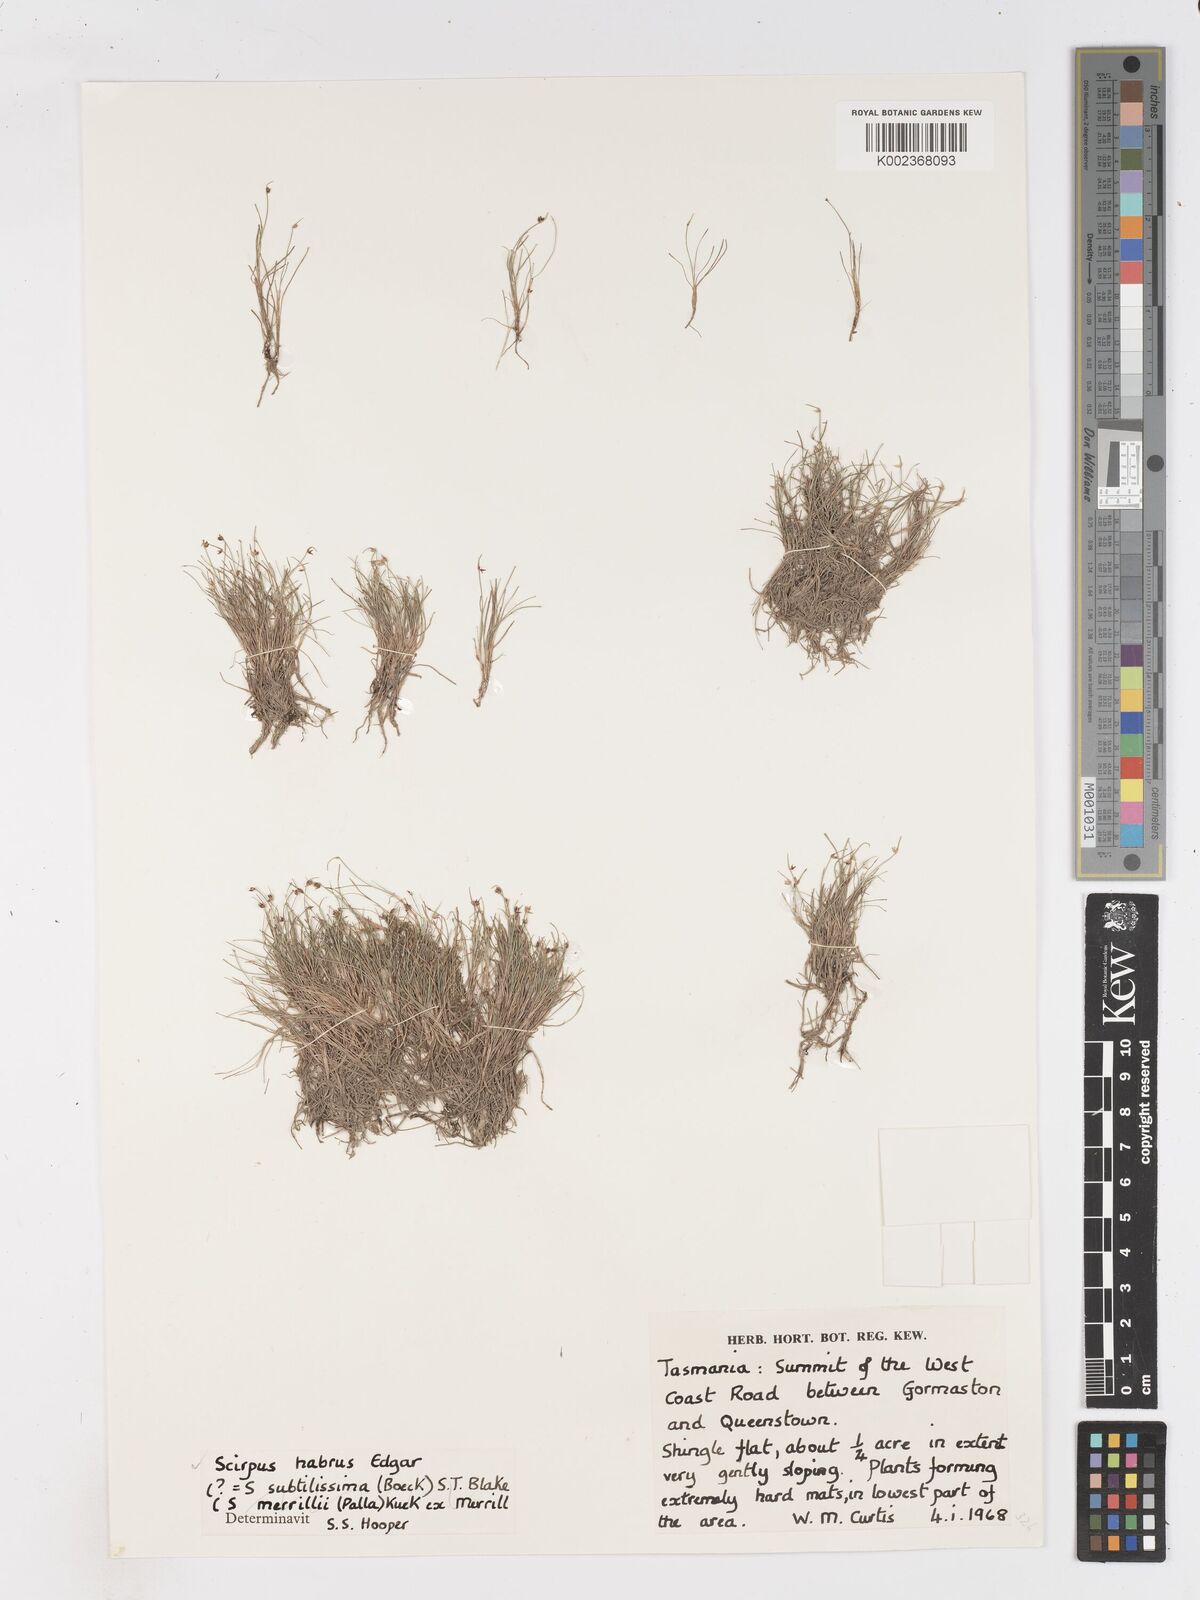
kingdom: Plantae
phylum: Tracheophyta
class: Liliopsida
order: Poales
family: Cyperaceae
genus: Isolepis
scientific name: Isolepis habra
